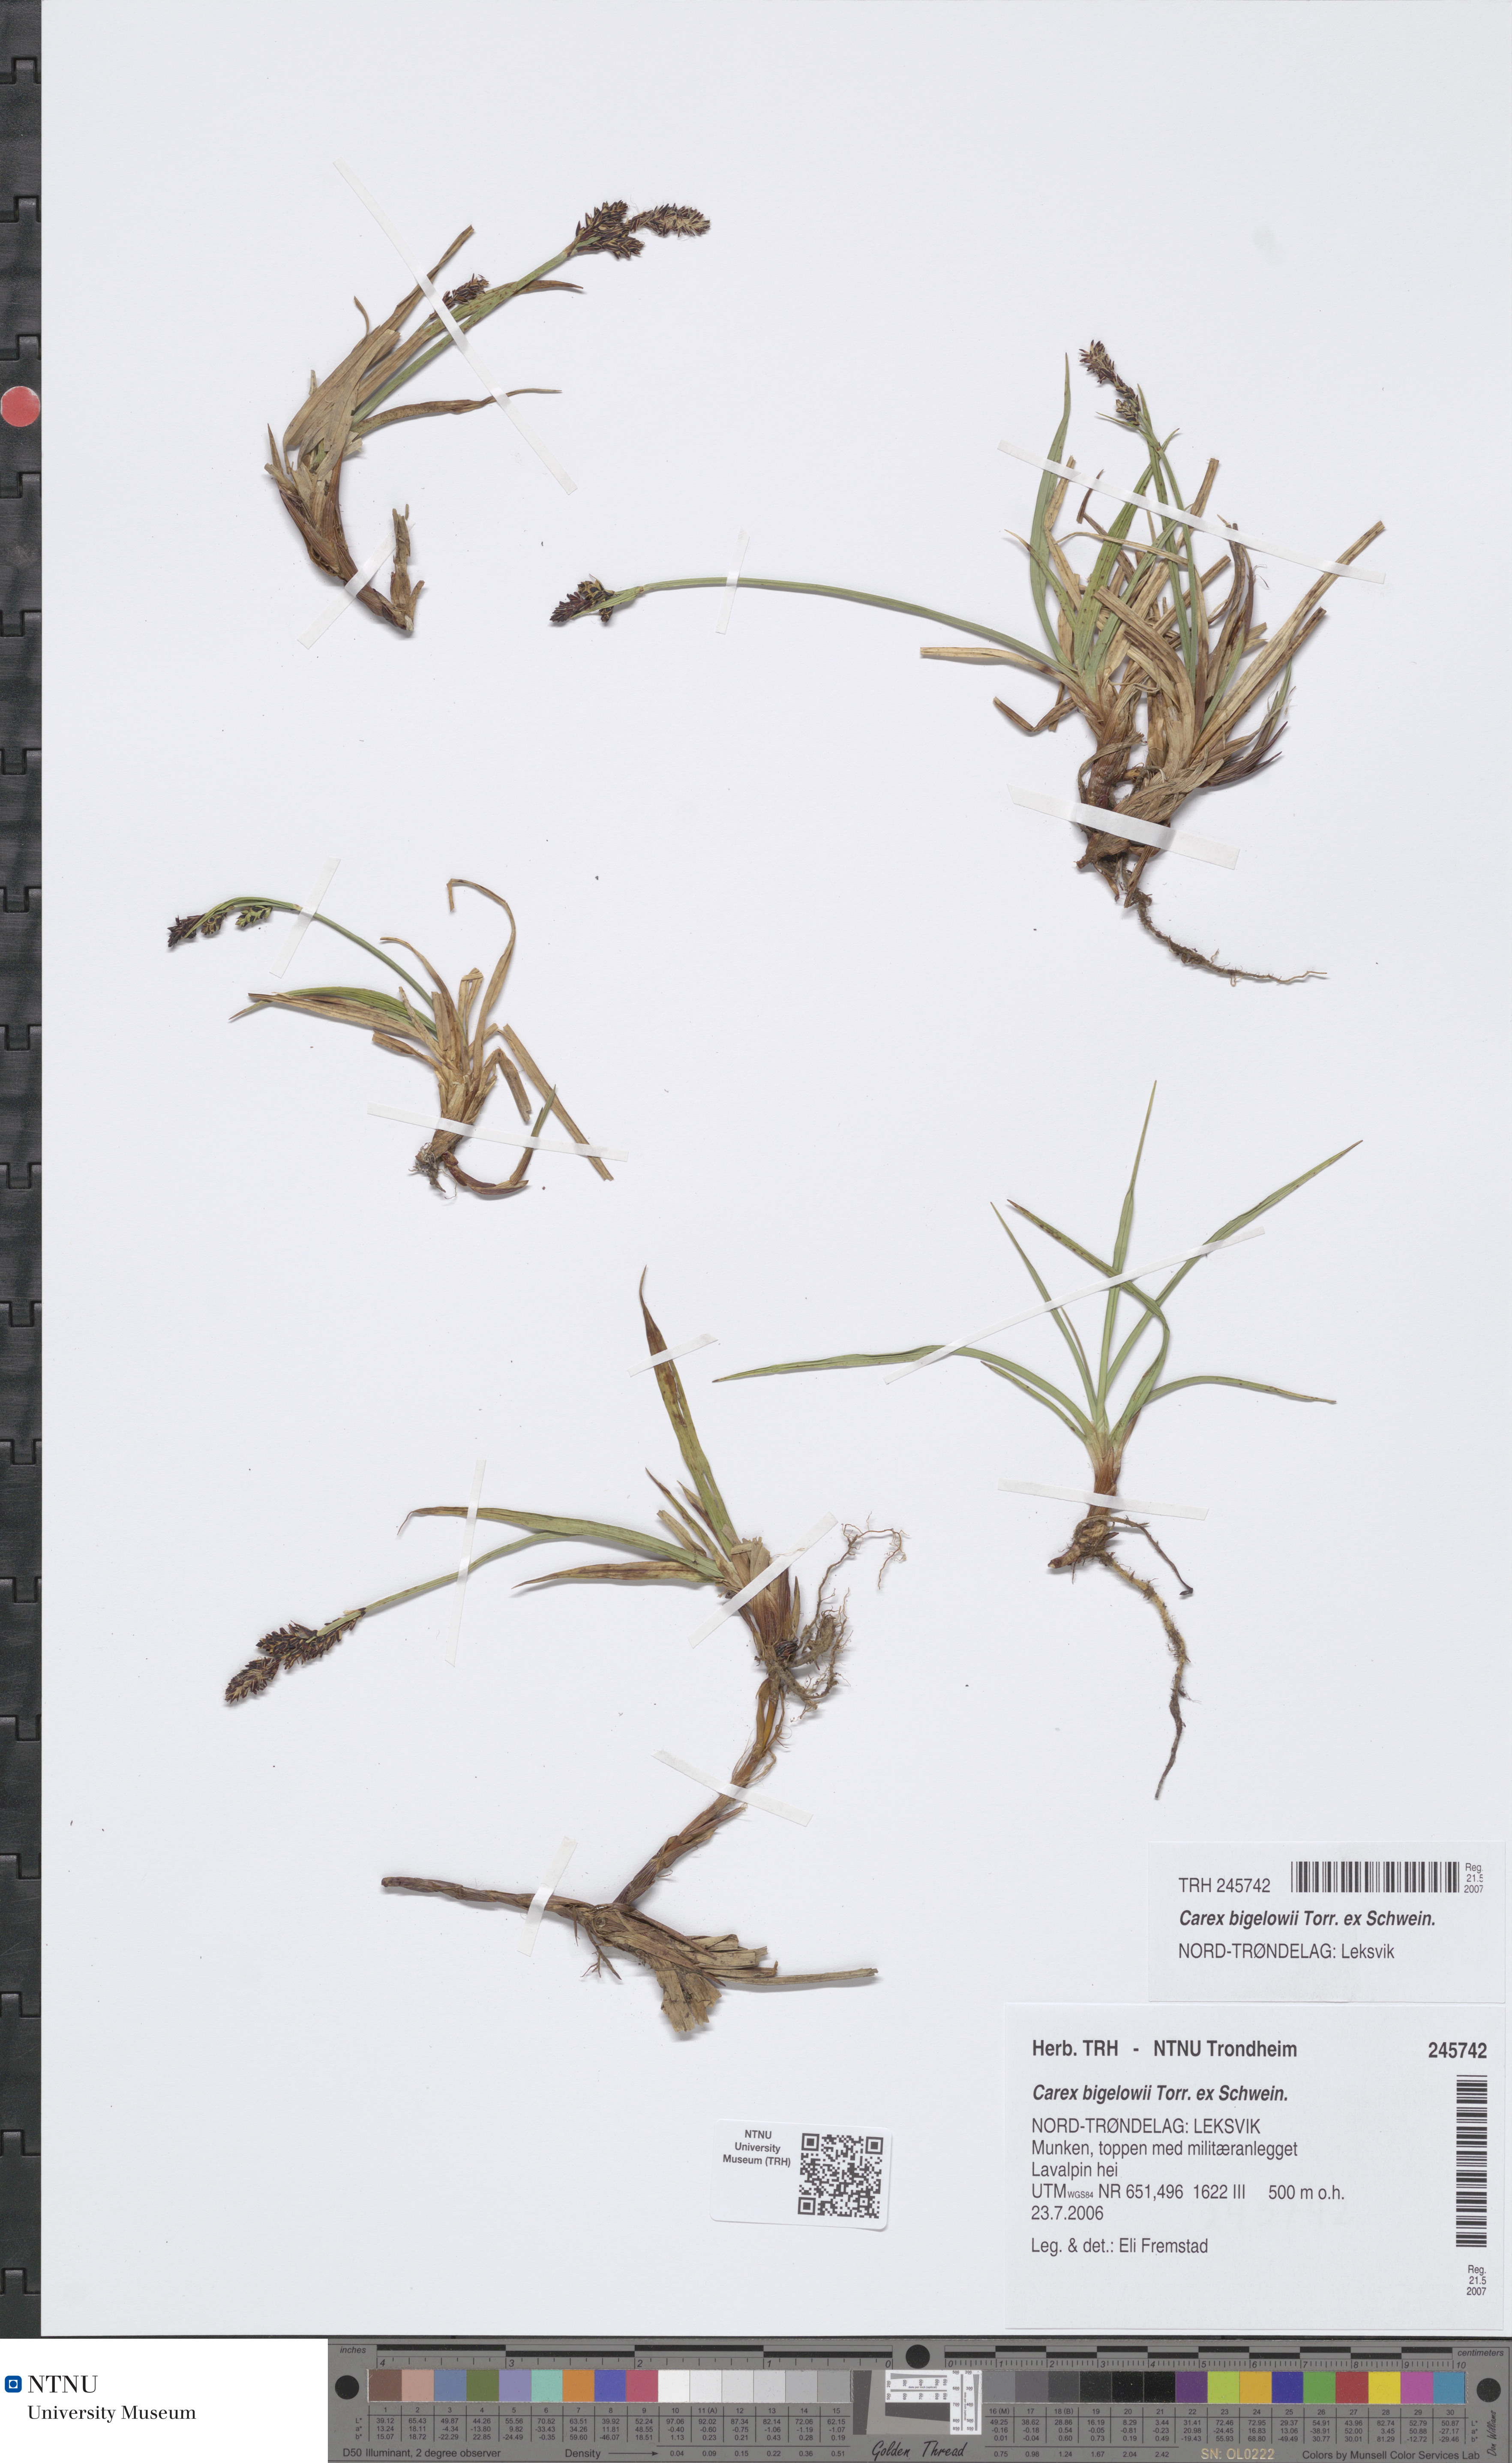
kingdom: Plantae
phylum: Tracheophyta
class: Liliopsida
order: Poales
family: Cyperaceae
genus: Carex
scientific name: Carex bigelowii
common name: Stiff sedge
